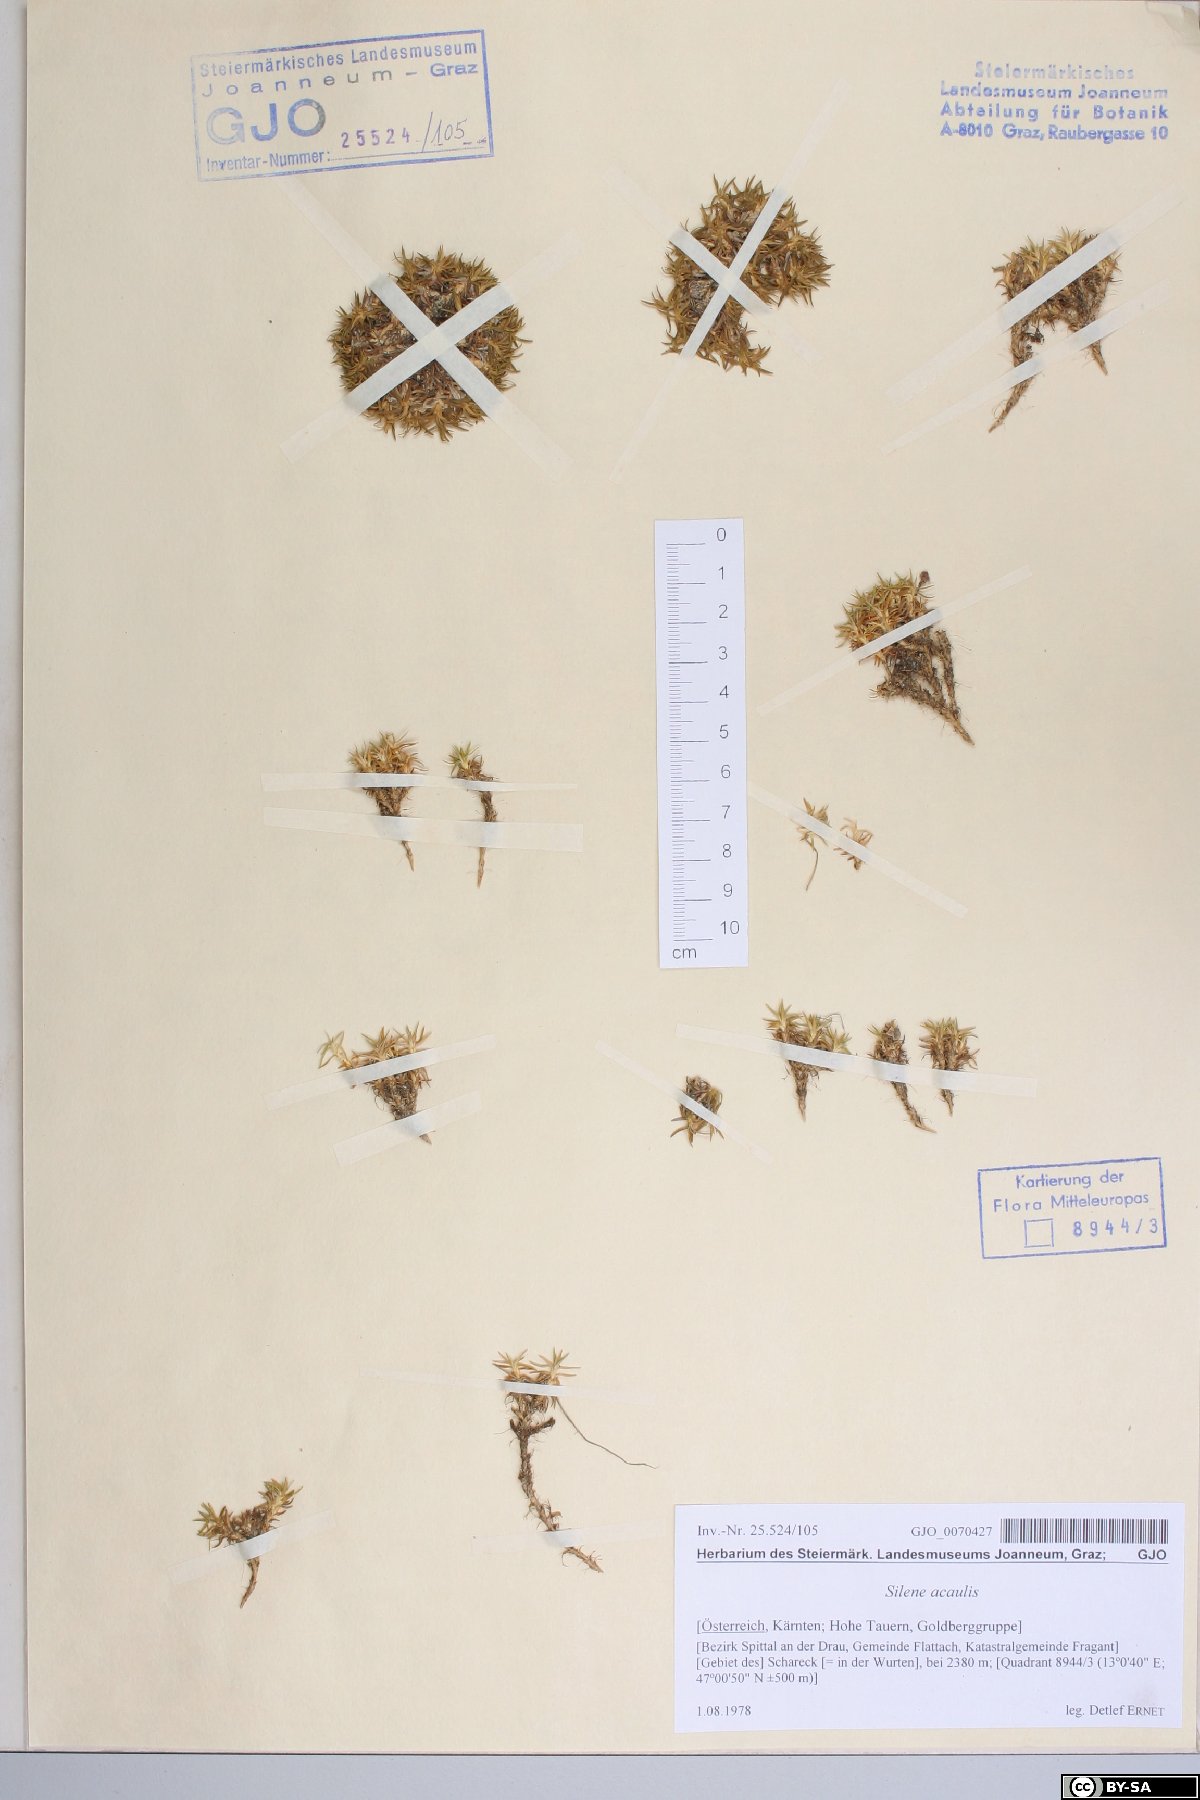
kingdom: Plantae
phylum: Tracheophyta
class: Magnoliopsida
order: Caryophyllales
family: Caryophyllaceae
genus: Silene
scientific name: Silene acaulis
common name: Moss campion
